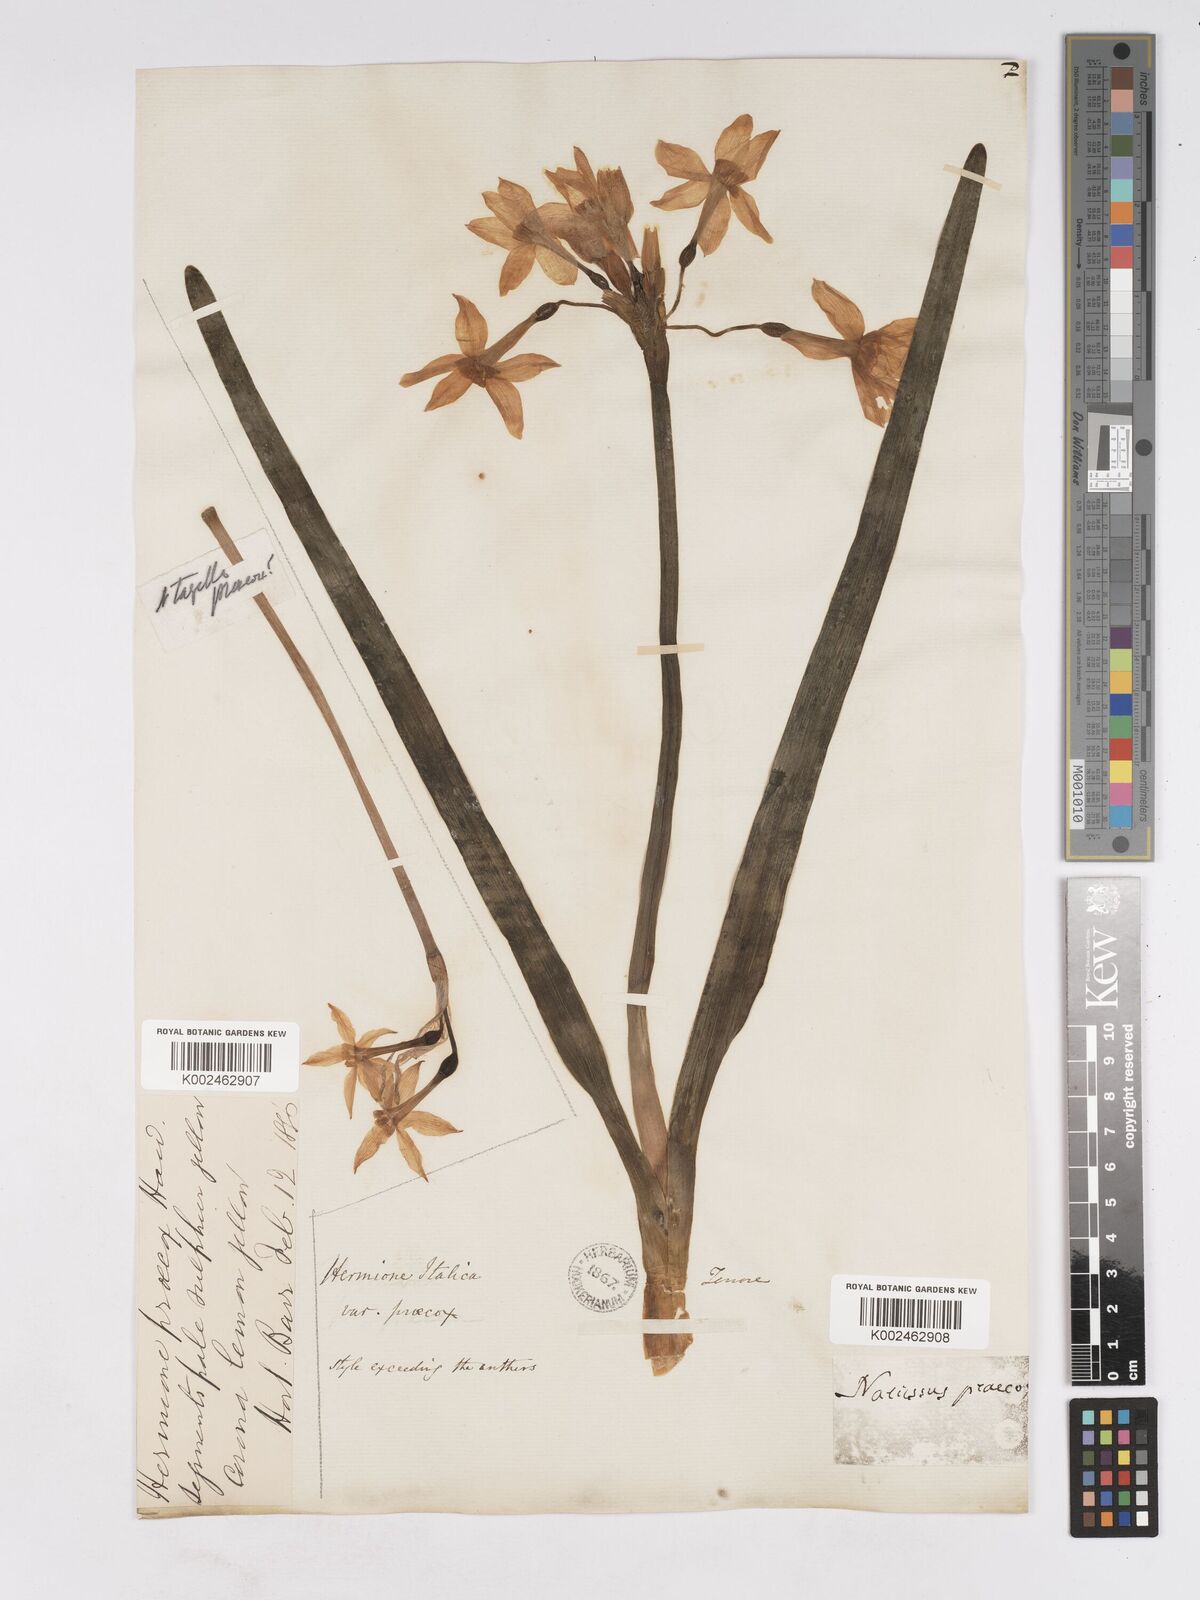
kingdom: Plantae
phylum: Tracheophyta
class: Liliopsida
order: Asparagales
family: Amaryllidaceae
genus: Narcissus
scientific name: Narcissus tazetta
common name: Bunch-flowered daffodil
